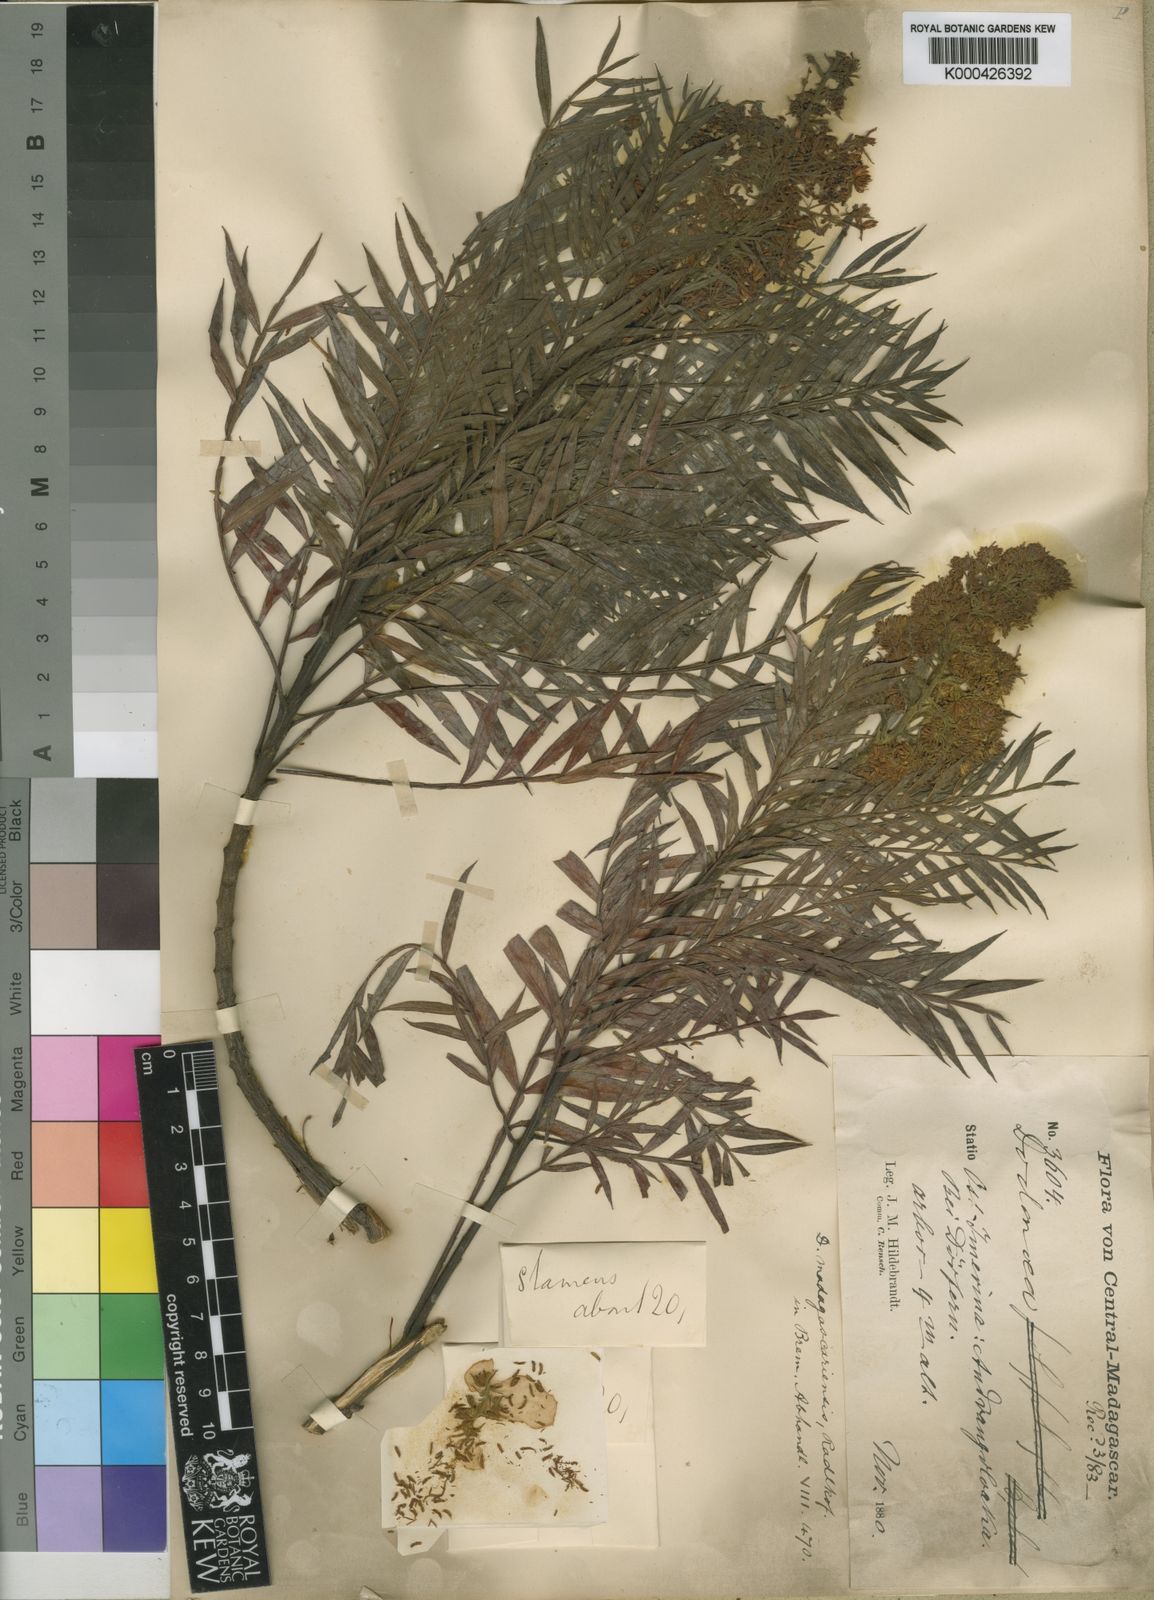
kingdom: Plantae
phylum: Tracheophyta
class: Magnoliopsida
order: Sapindales
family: Sapindaceae
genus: Dodonaea
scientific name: Dodonaea madagascariensis
